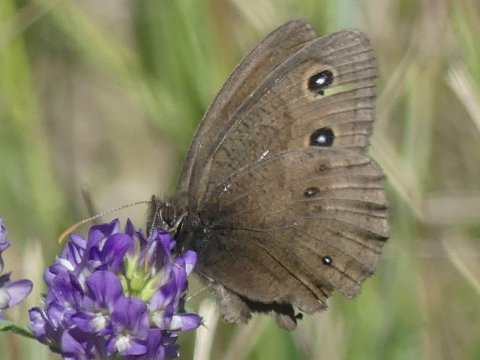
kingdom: Animalia
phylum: Arthropoda
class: Insecta
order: Lepidoptera
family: Nymphalidae
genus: Cercyonis
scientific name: Cercyonis pegala
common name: Common Wood-Nymph
